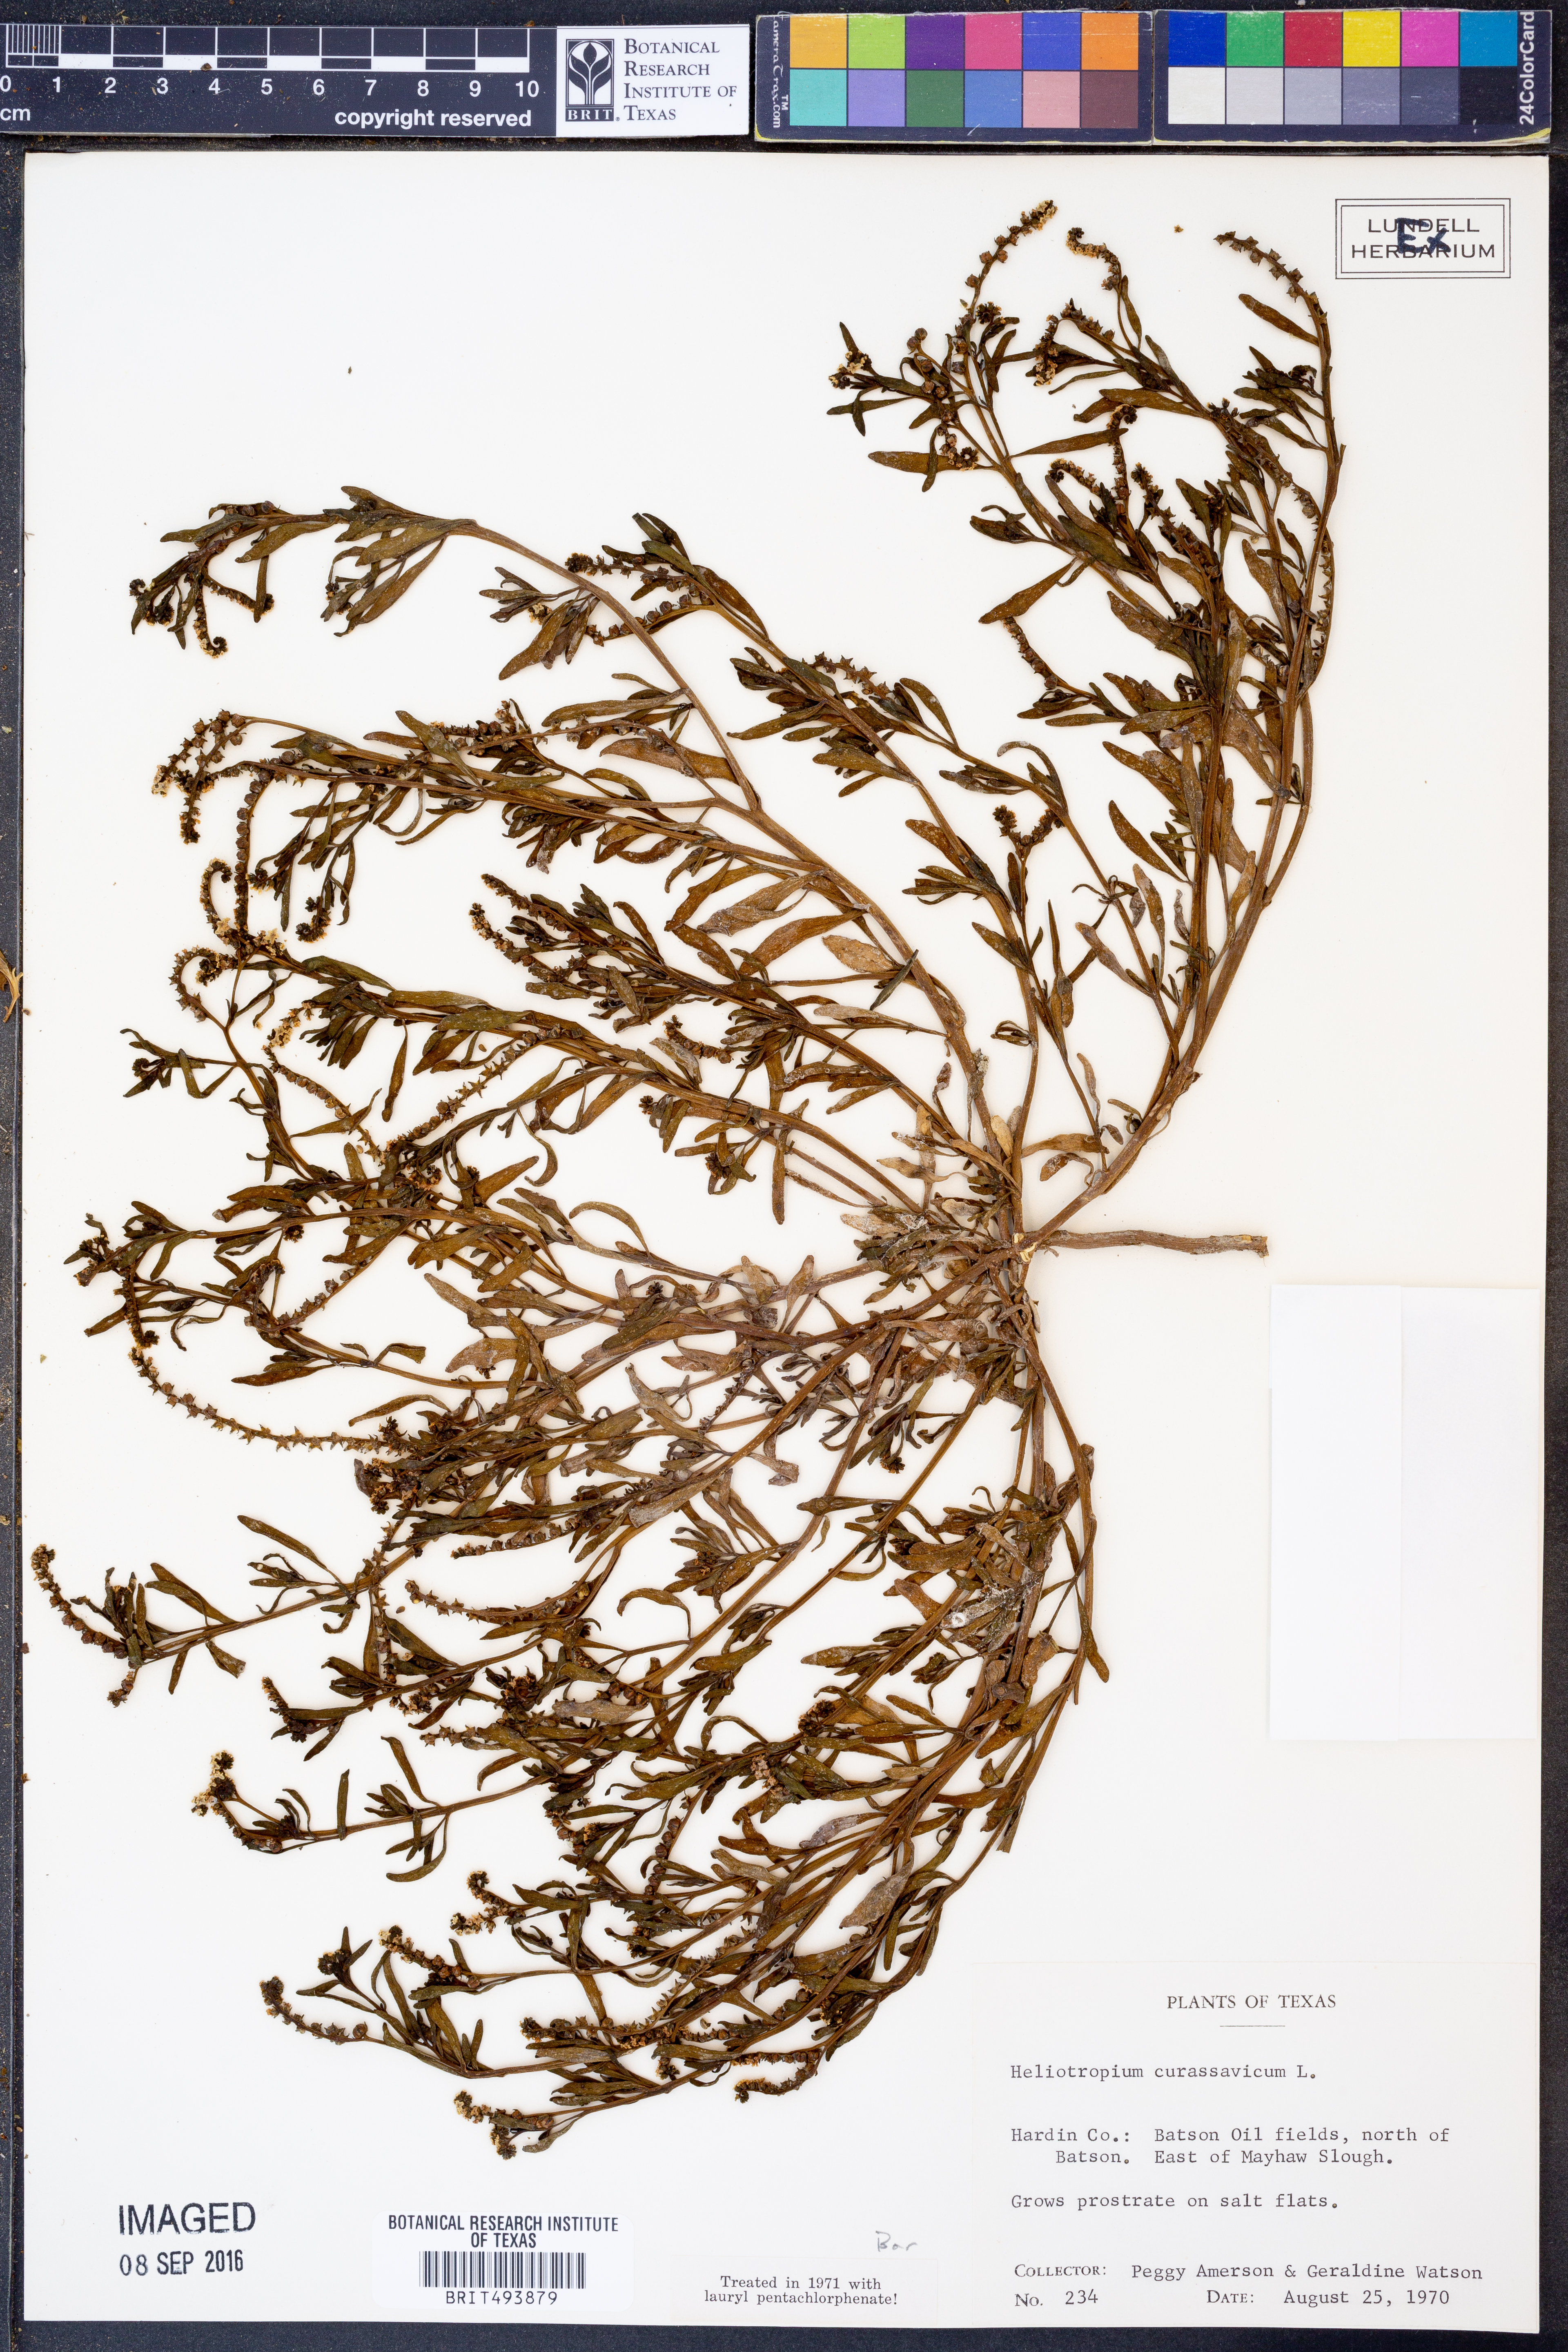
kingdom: Plantae
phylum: Tracheophyta
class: Magnoliopsida
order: Boraginales
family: Heliotropiaceae
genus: Heliotropium
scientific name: Heliotropium curassavicum
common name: Seaside heliotrope
